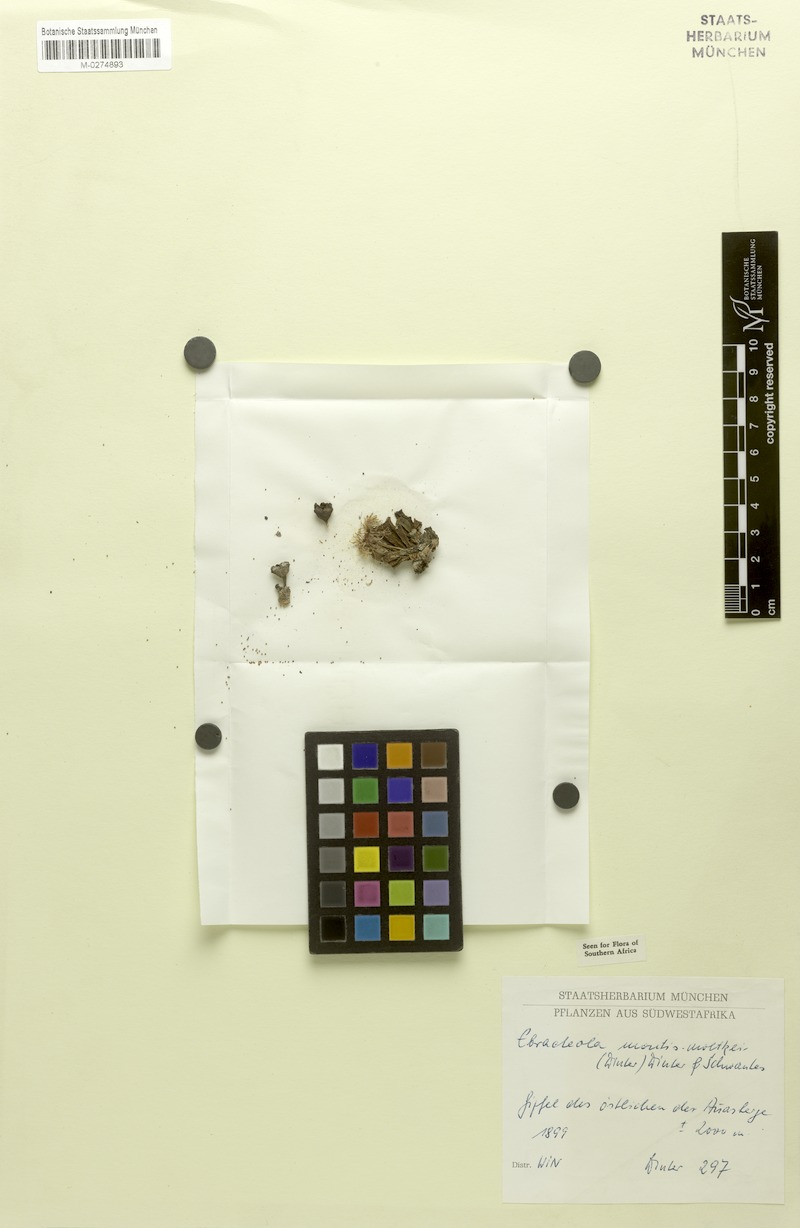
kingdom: Plantae
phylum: Tracheophyta
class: Magnoliopsida
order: Caryophyllales
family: Aizoaceae
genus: Ebracteola
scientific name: Ebracteola montis-moltkei
